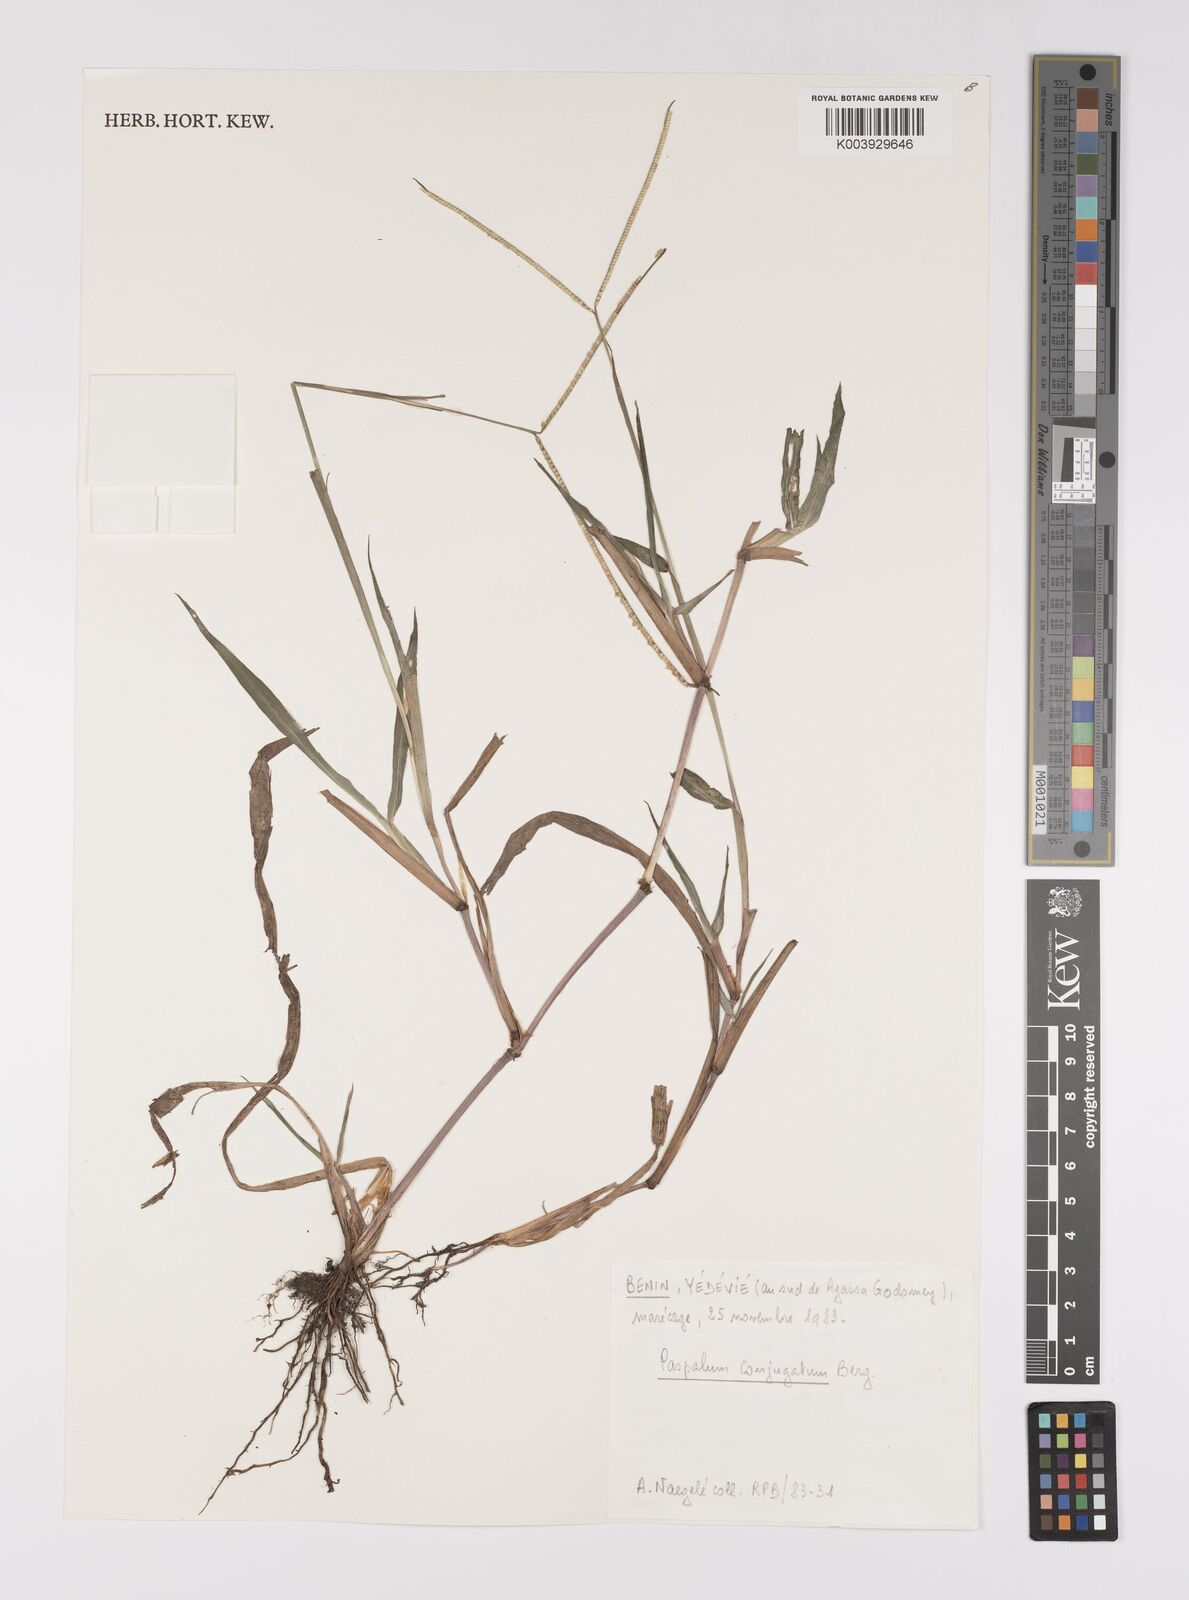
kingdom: Plantae
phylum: Tracheophyta
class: Liliopsida
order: Poales
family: Poaceae
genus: Paspalum
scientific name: Paspalum conjugatum
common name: Hilograss
